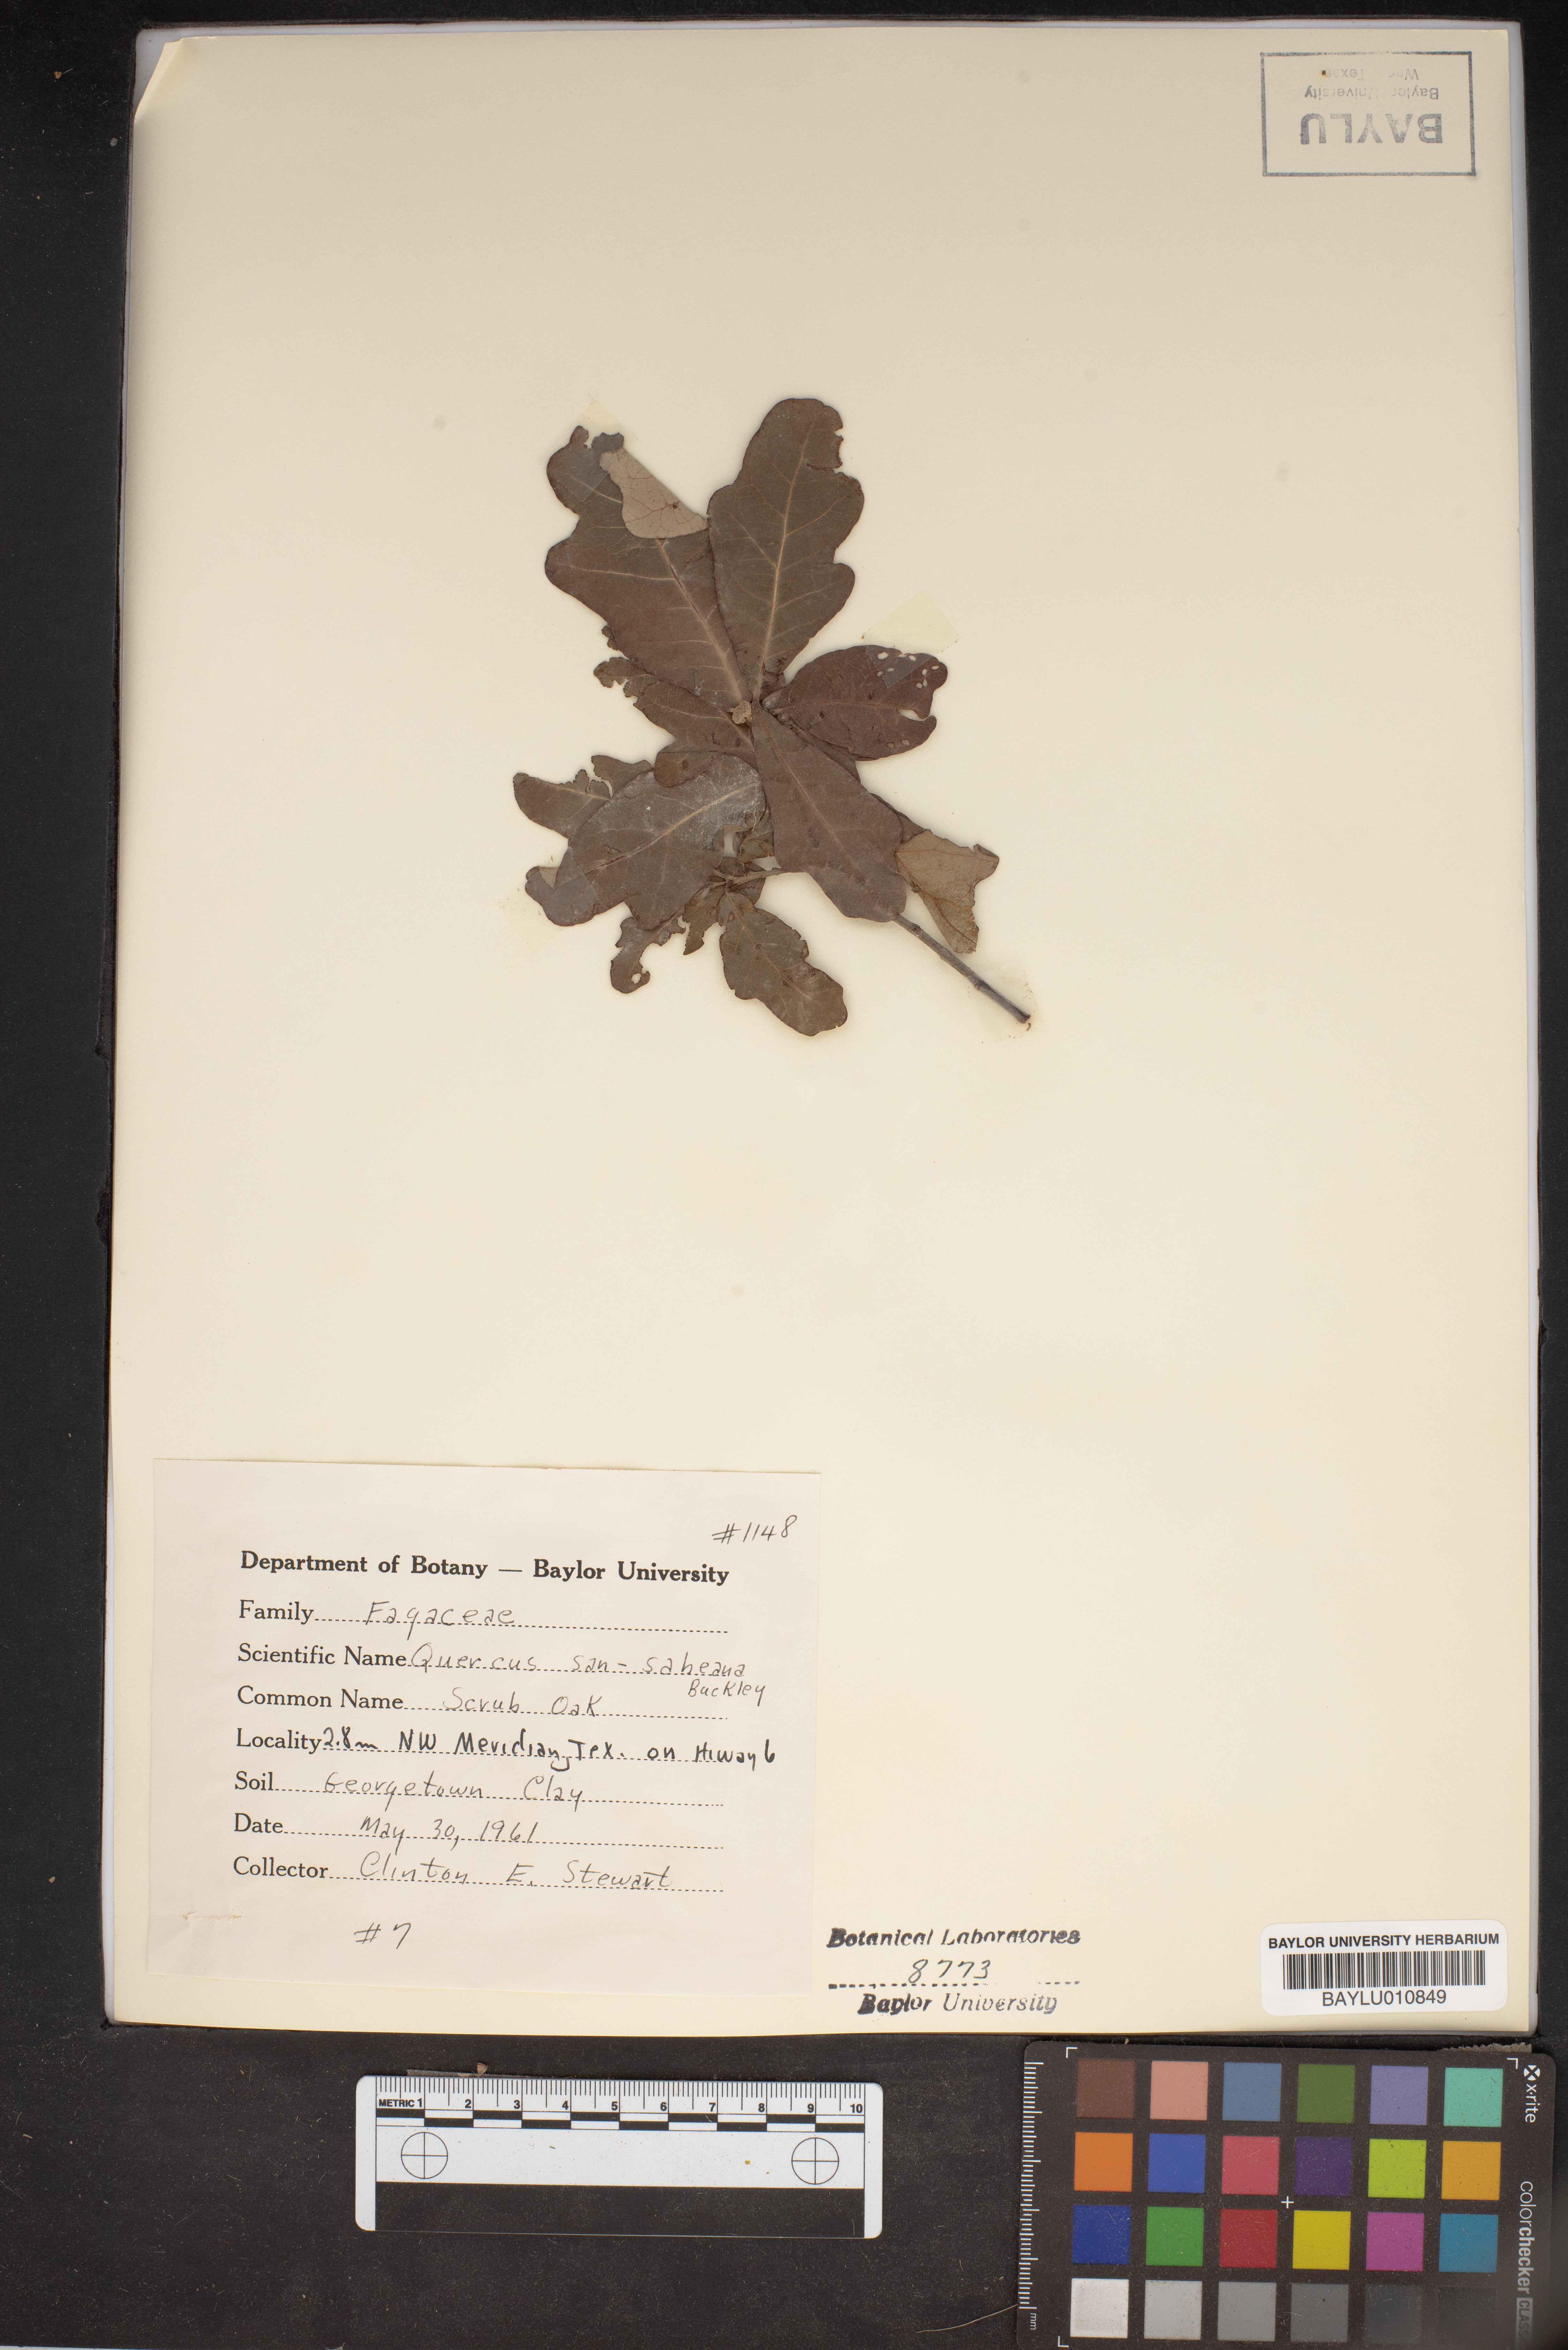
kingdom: Plantae
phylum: Tracheophyta
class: Magnoliopsida
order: Fagales
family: Fagaceae
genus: Quercus
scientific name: Quercus sinuata
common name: Durand oak
